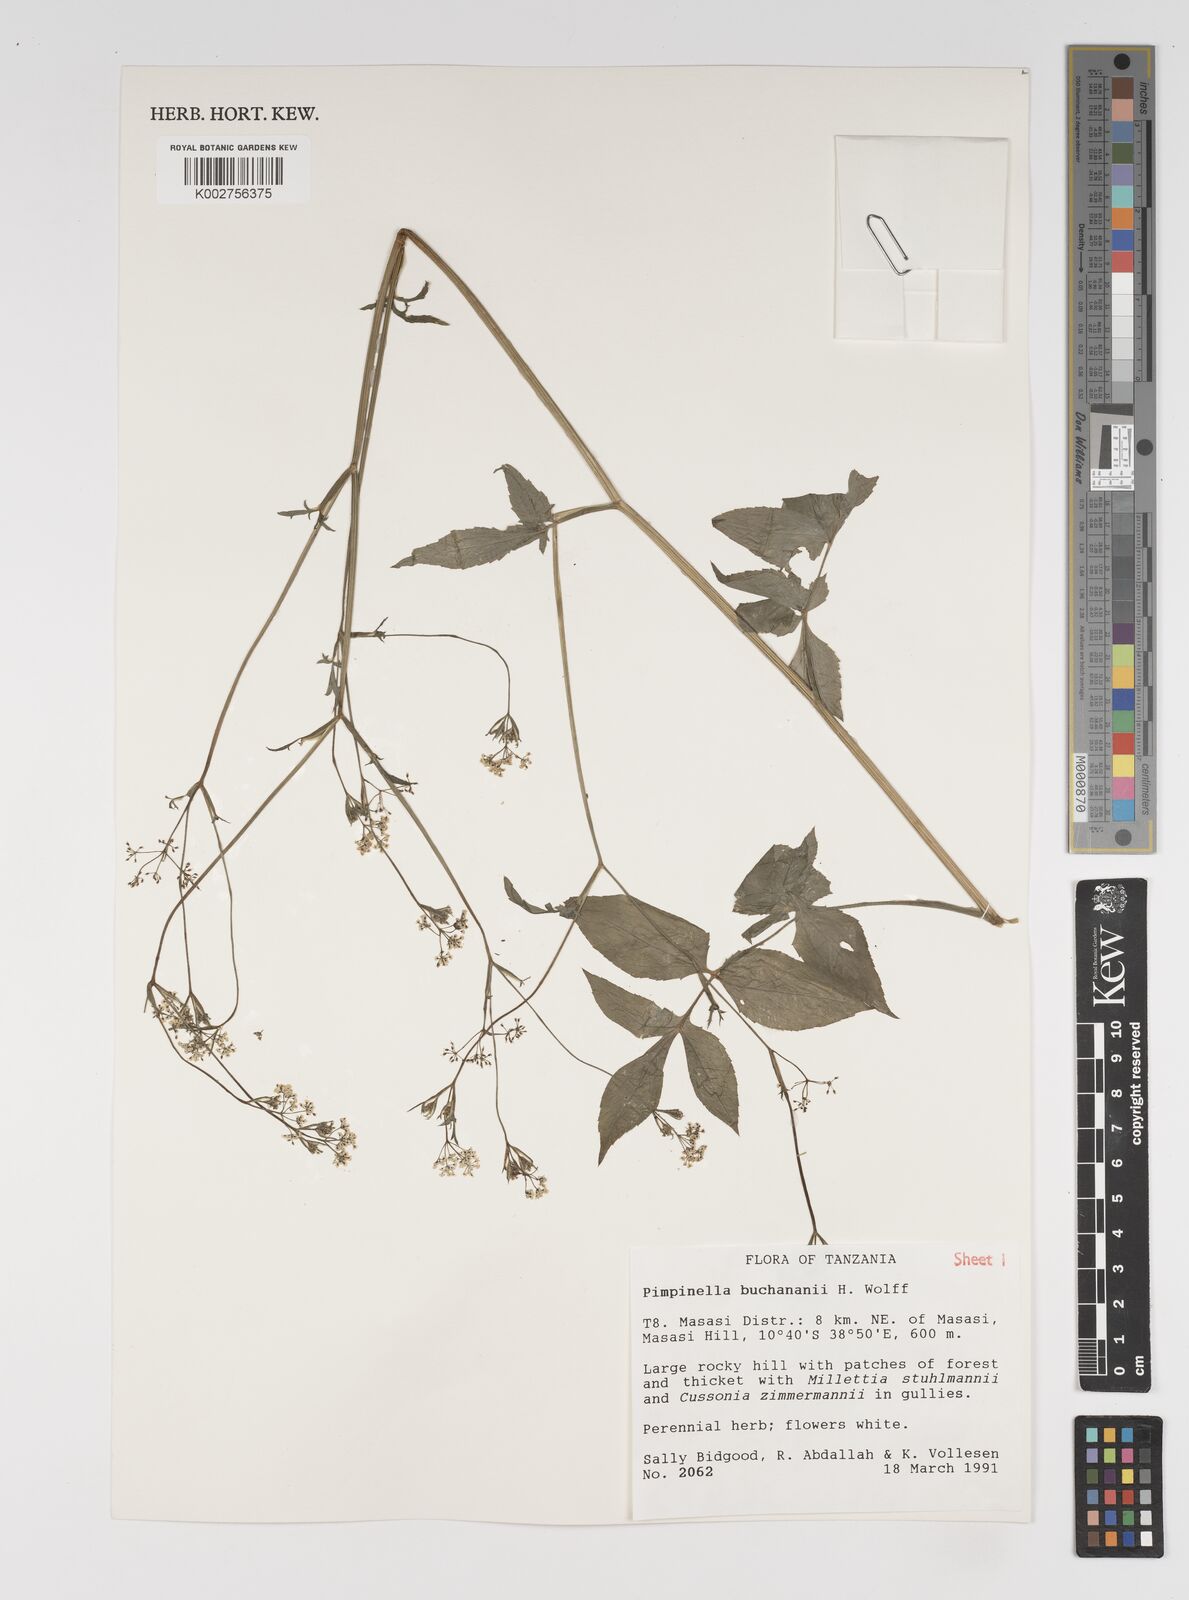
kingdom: Plantae
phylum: Tracheophyta
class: Magnoliopsida
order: Apiales
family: Apiaceae
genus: Pimpinella
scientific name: Pimpinella buchananii
